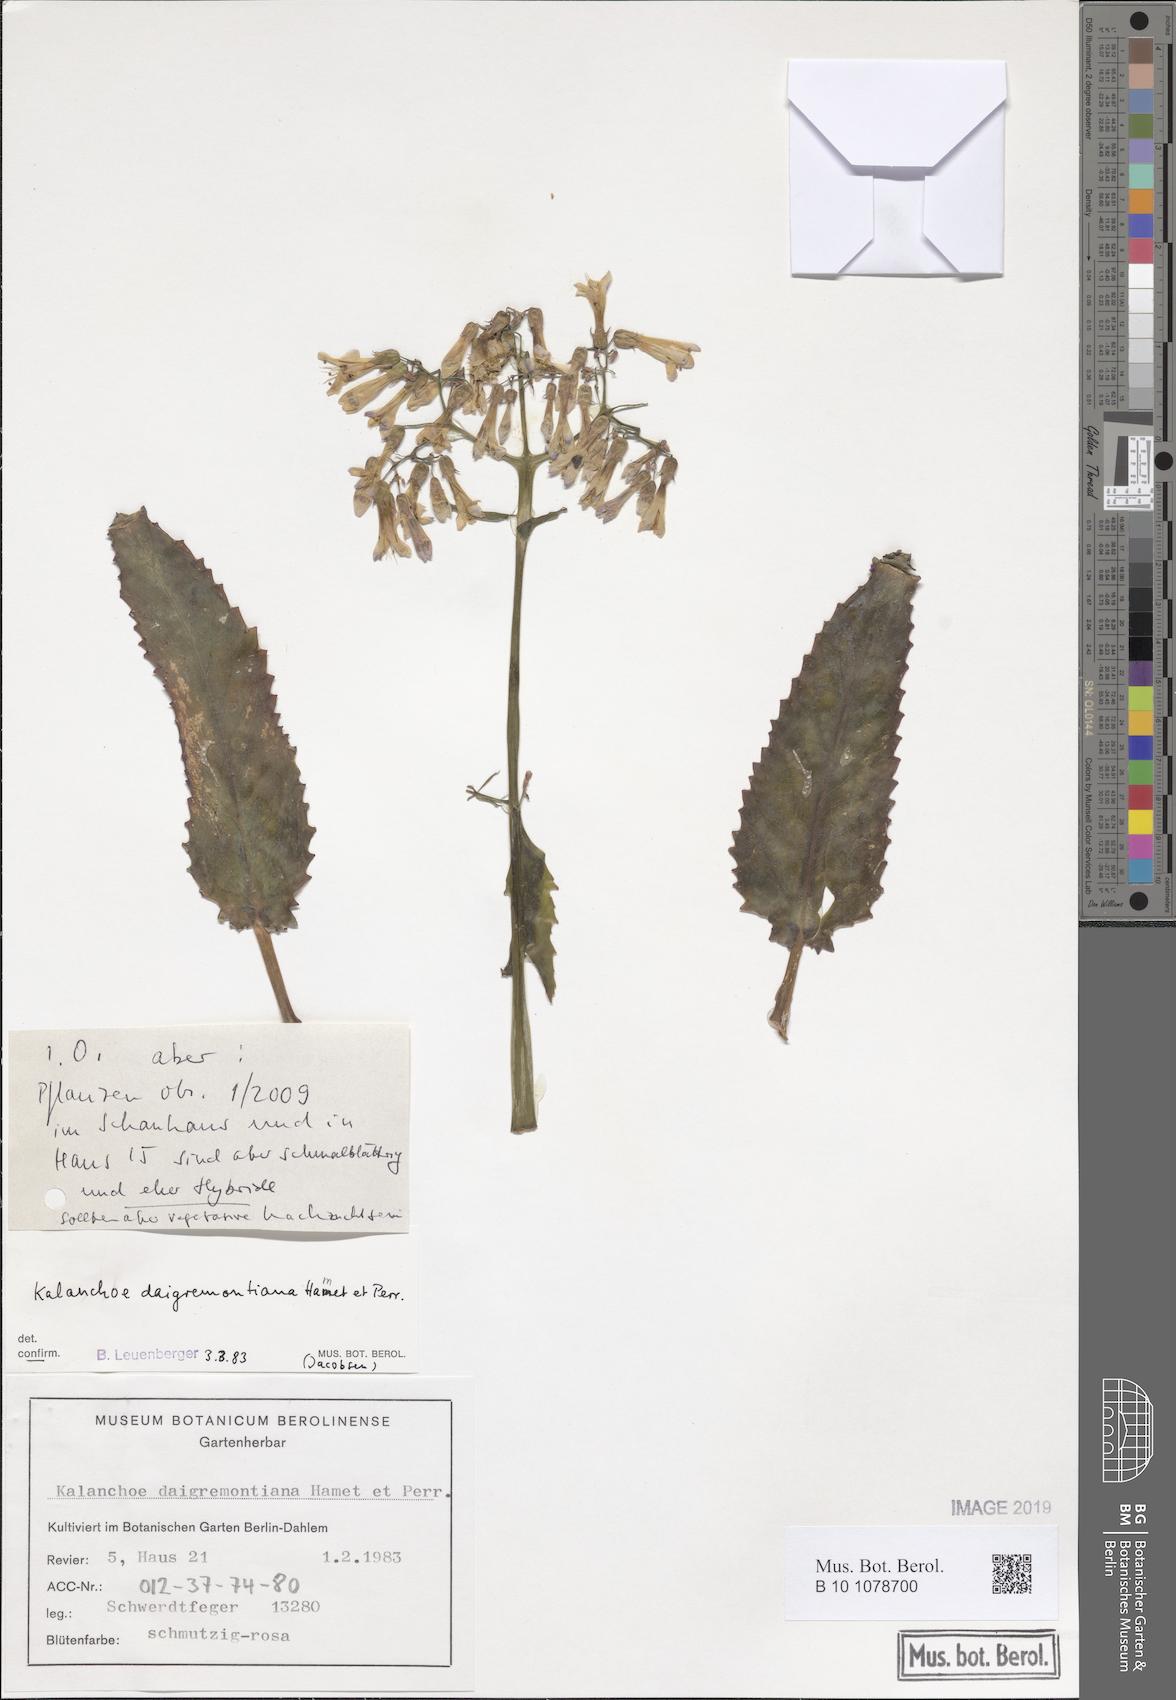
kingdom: Plantae
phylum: Tracheophyta
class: Magnoliopsida
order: Saxifragales
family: Crassulaceae
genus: Kalanchoe
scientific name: Kalanchoe daigremontiana
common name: Devil's backbone
